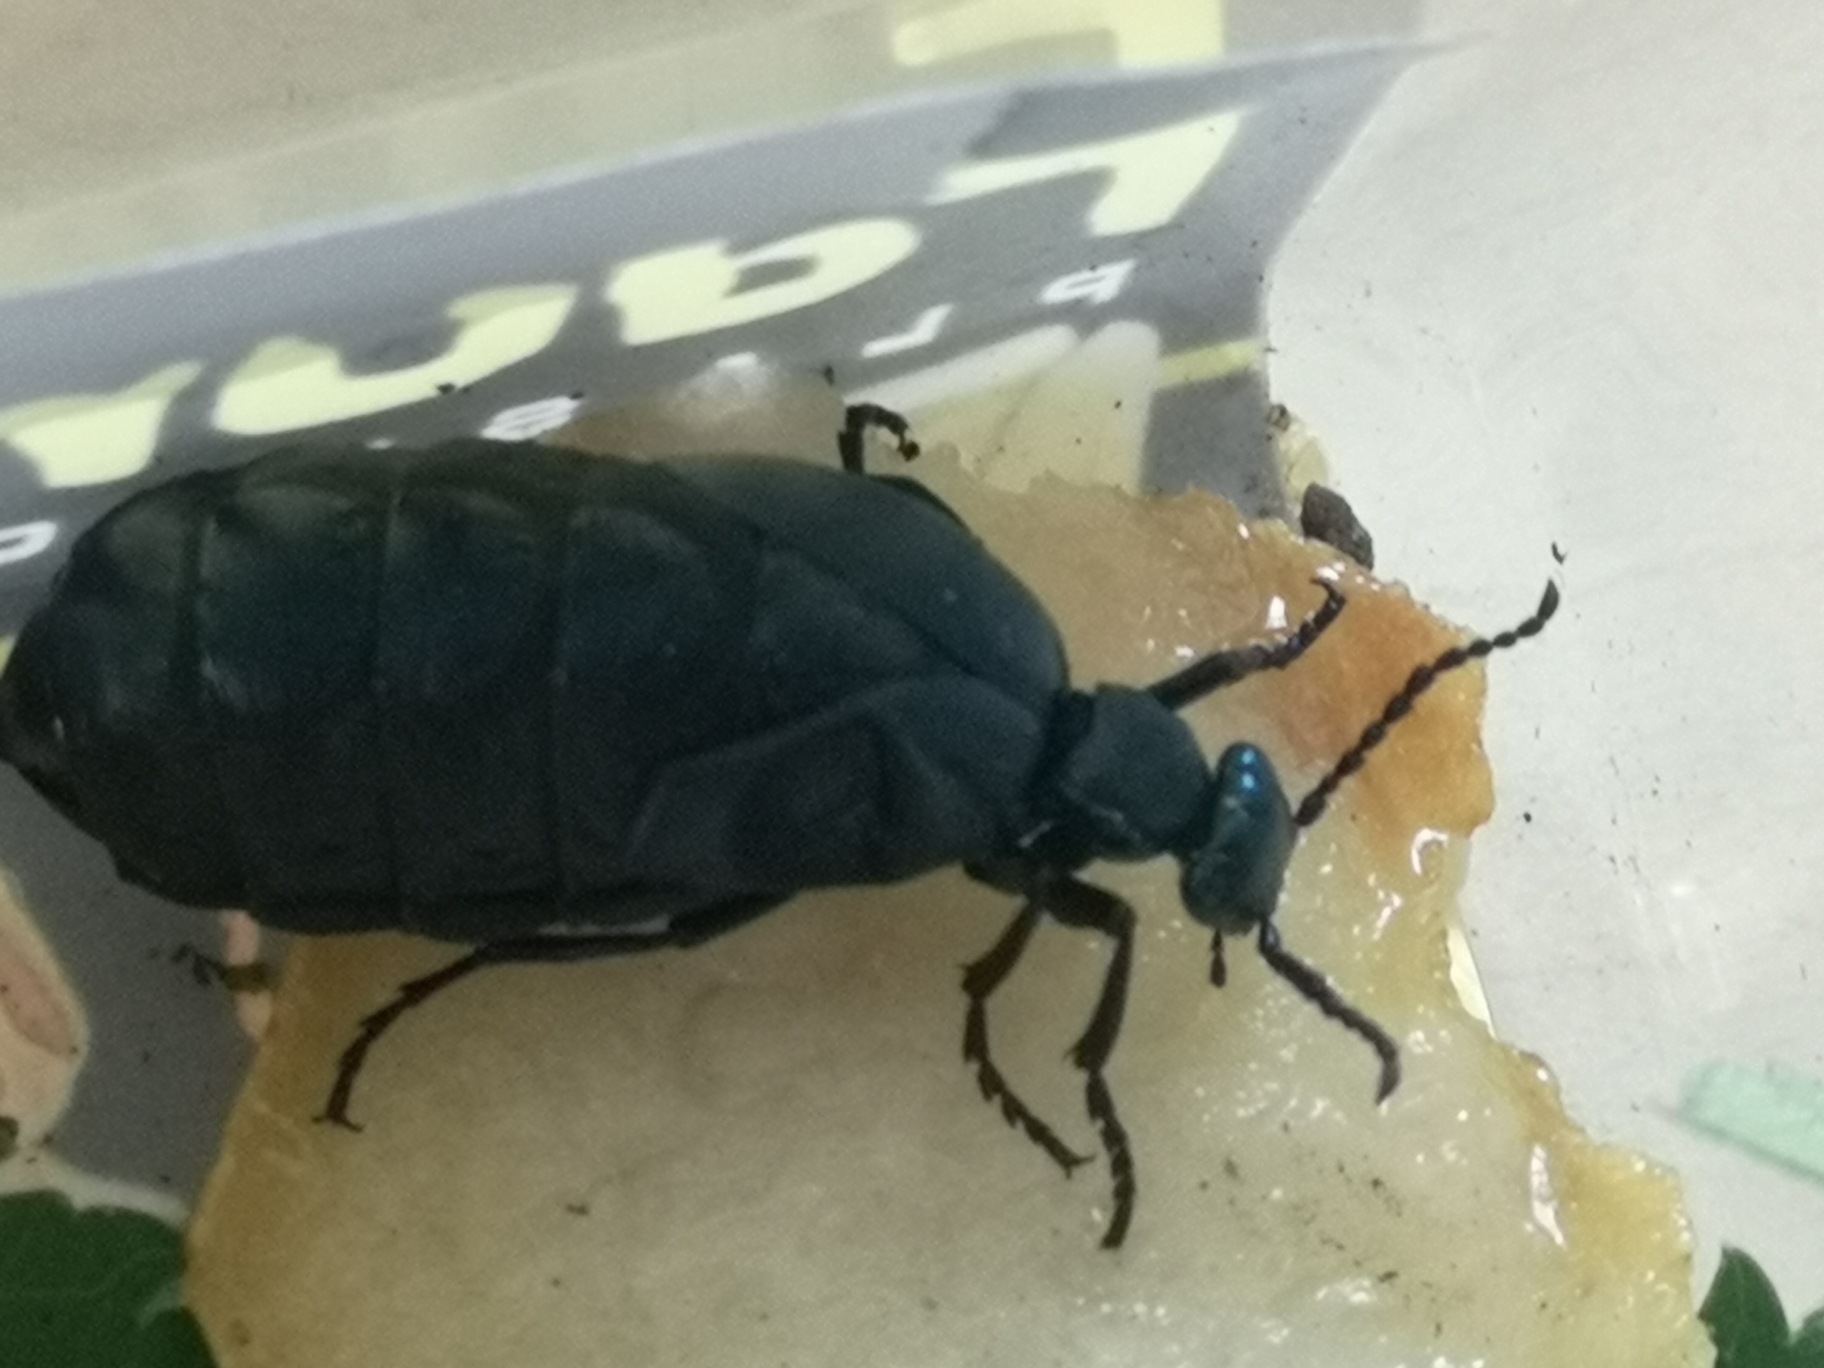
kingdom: Animalia
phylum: Arthropoda
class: Insecta
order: Coleoptera
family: Meloidae
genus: Meloe
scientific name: Meloe violaceus
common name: Blå oliebille
